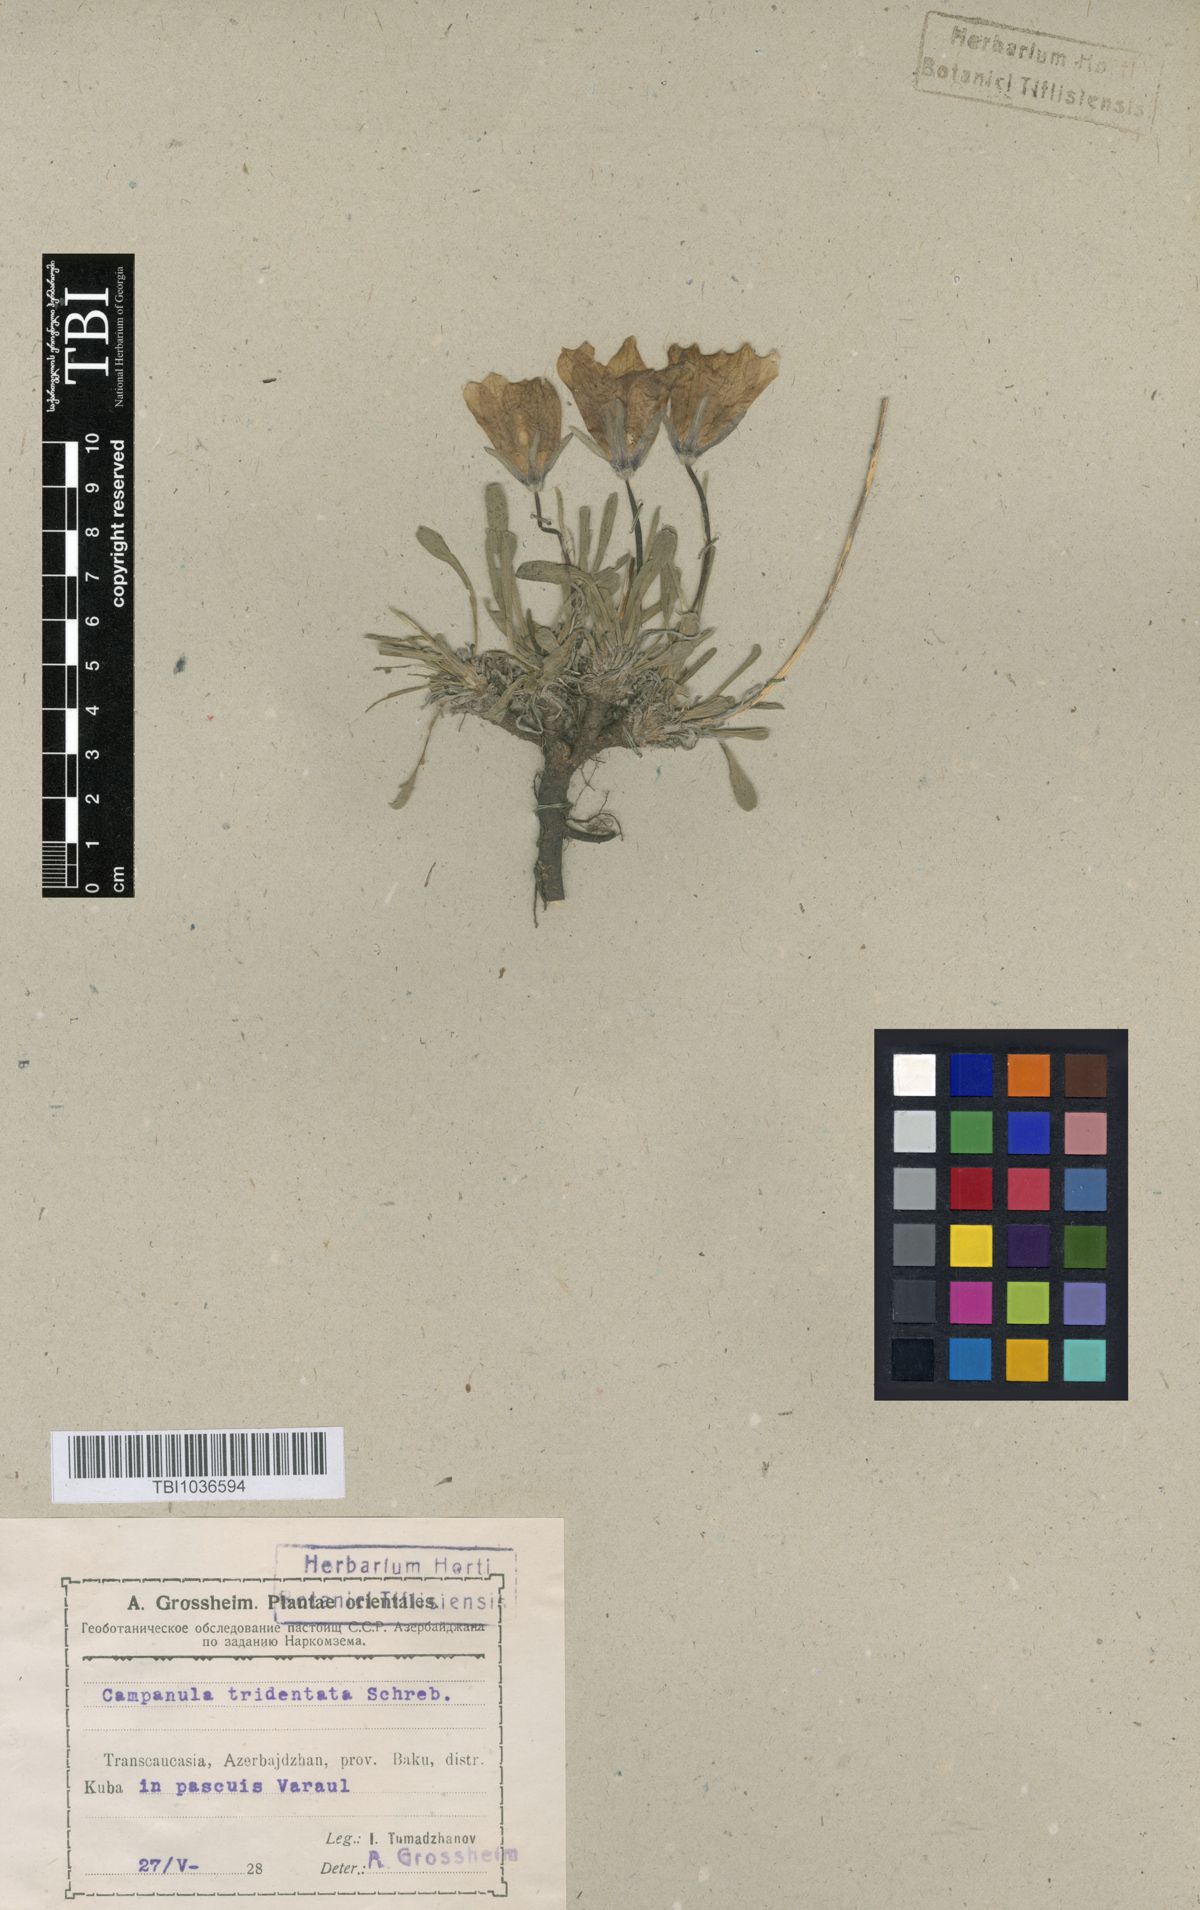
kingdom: Plantae
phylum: Tracheophyta
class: Magnoliopsida
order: Asterales
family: Campanulaceae
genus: Campanula
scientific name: Campanula tridentata
